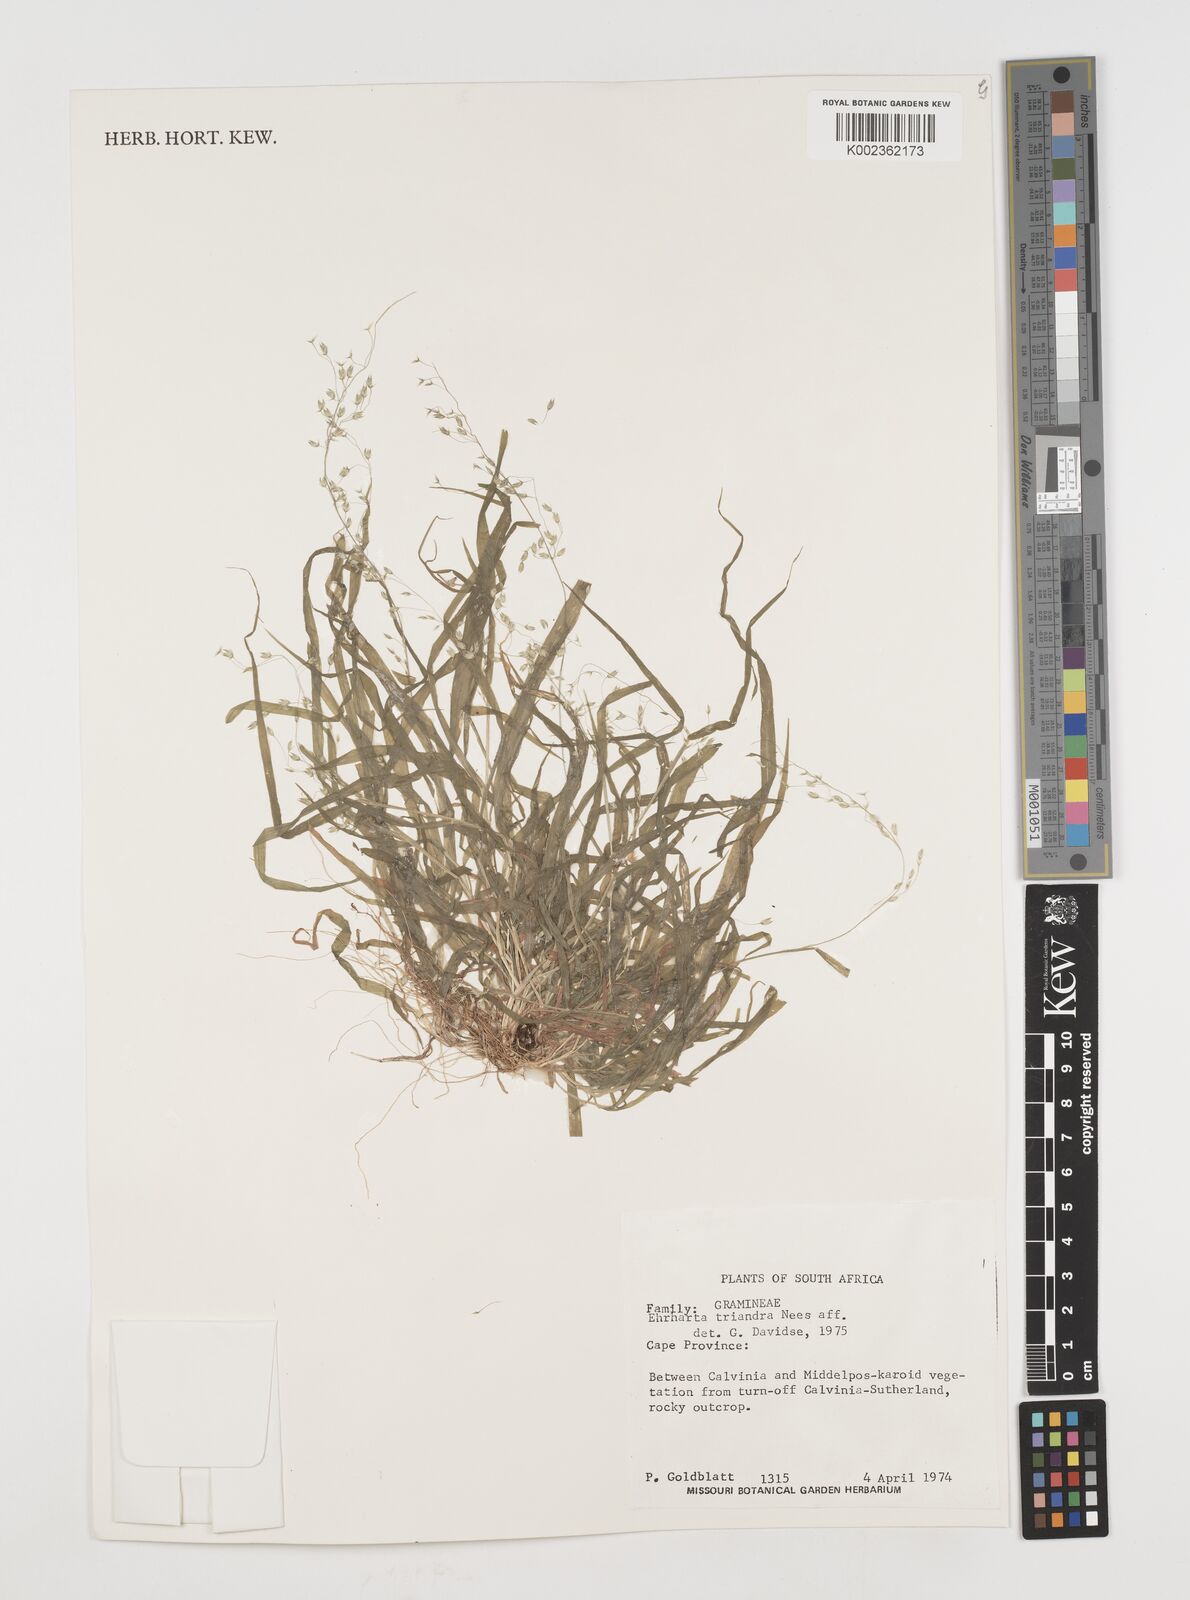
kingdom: Plantae
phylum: Tracheophyta
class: Liliopsida
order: Poales
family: Poaceae
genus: Ehrharta
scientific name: Ehrharta
